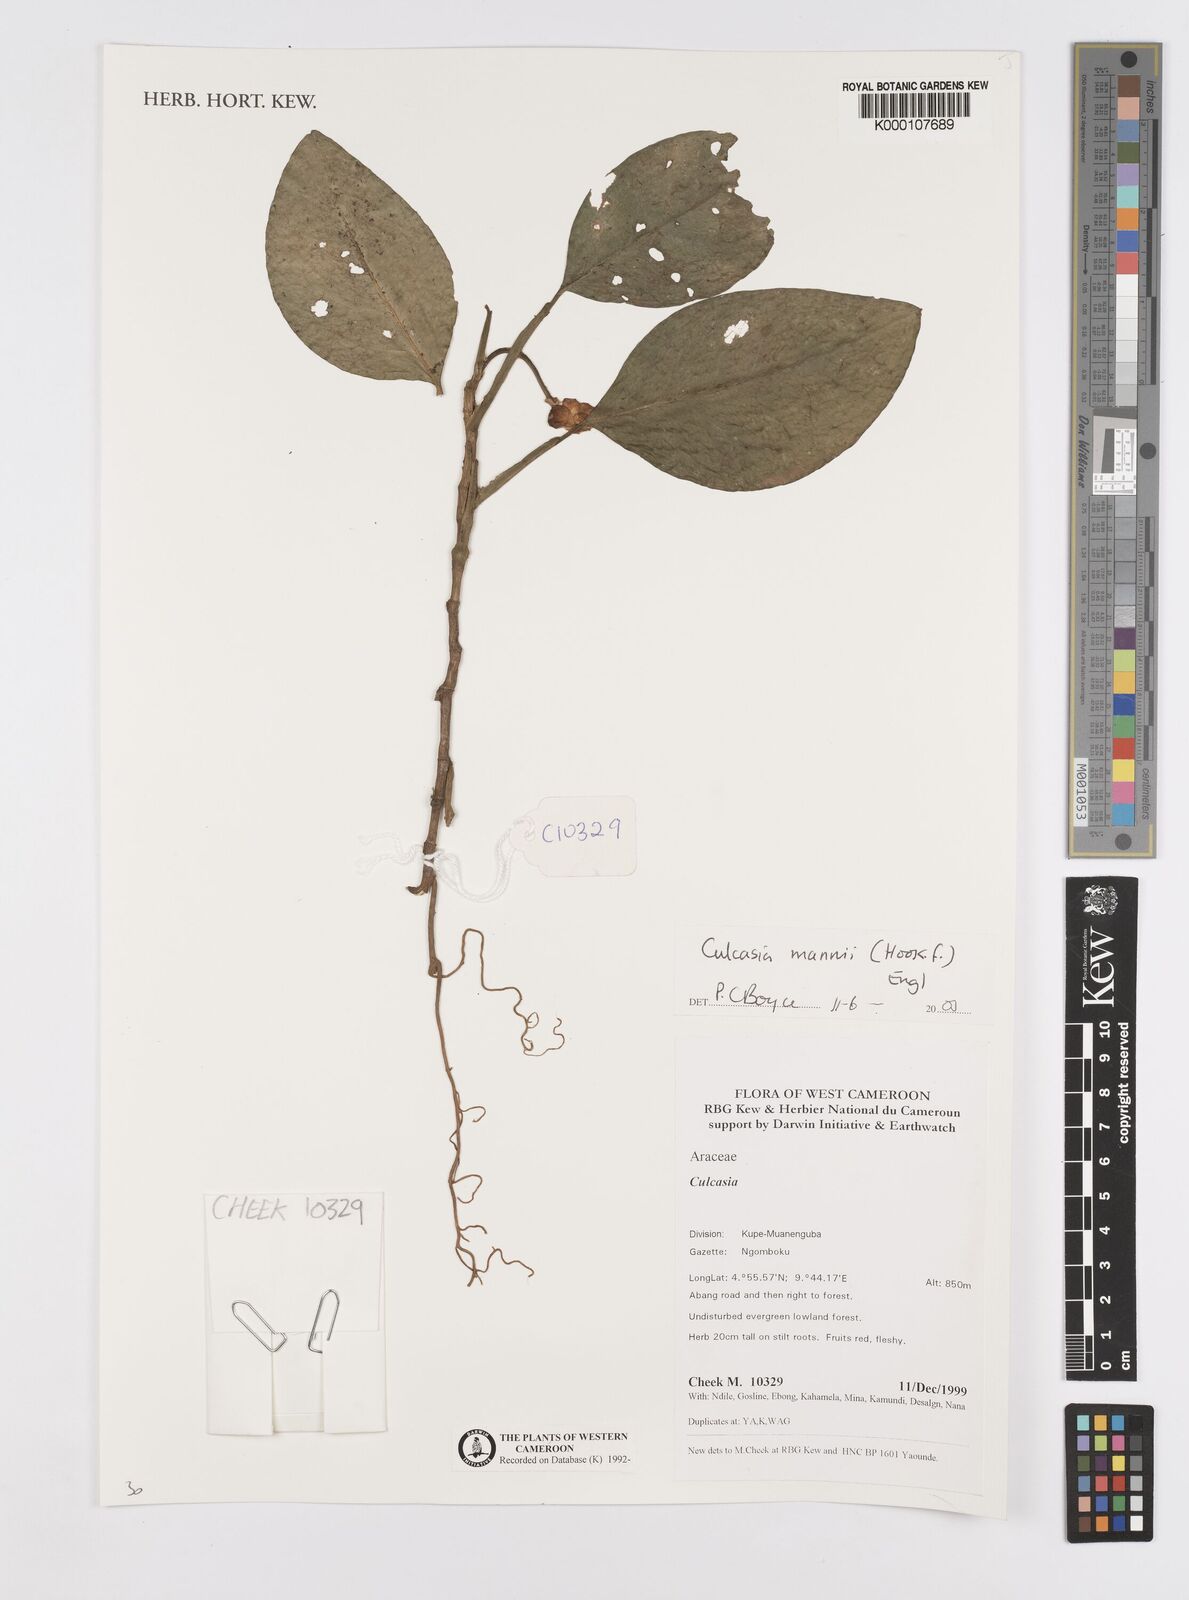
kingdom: Plantae
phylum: Tracheophyta
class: Liliopsida
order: Alismatales
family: Araceae
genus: Culcasia
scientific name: Culcasia mannii
